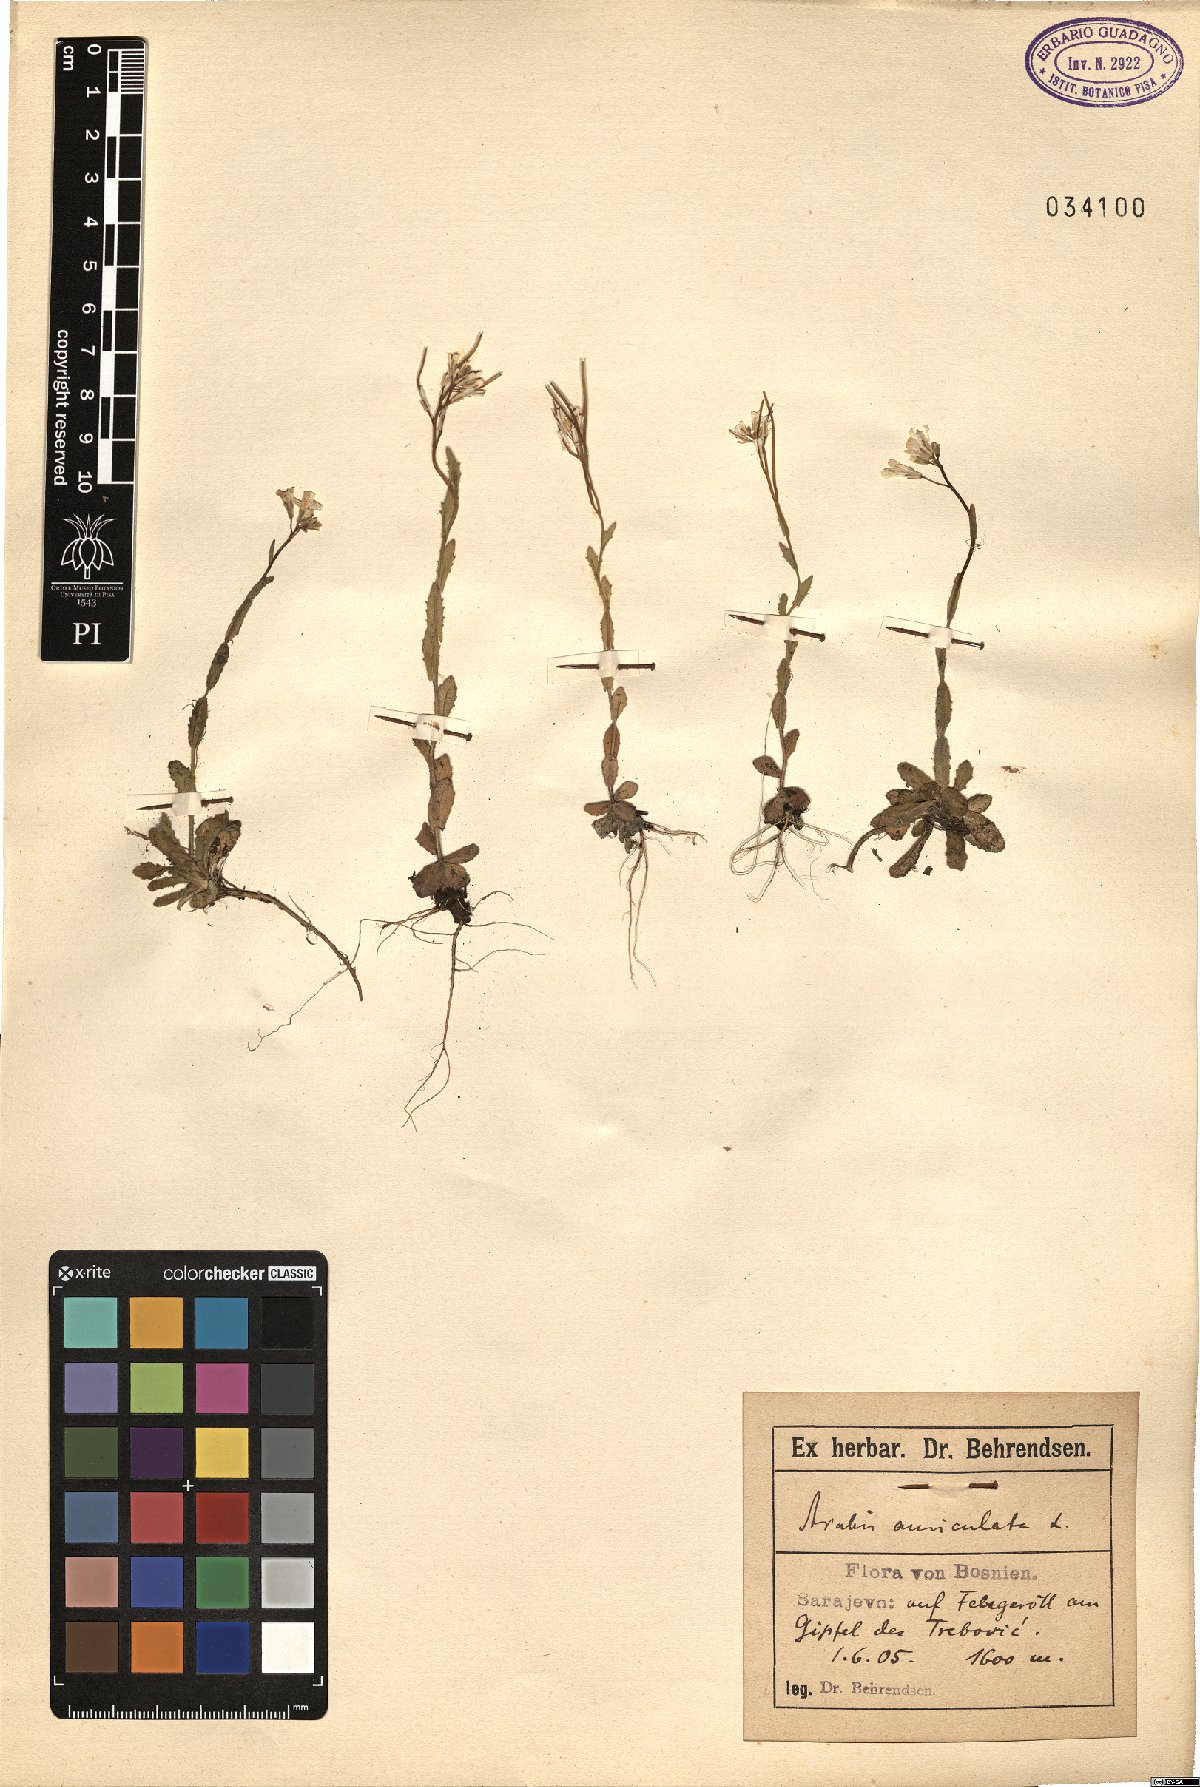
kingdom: Plantae
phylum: Tracheophyta
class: Magnoliopsida
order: Brassicales
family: Brassicaceae
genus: Arabis
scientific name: Arabis auriculata
